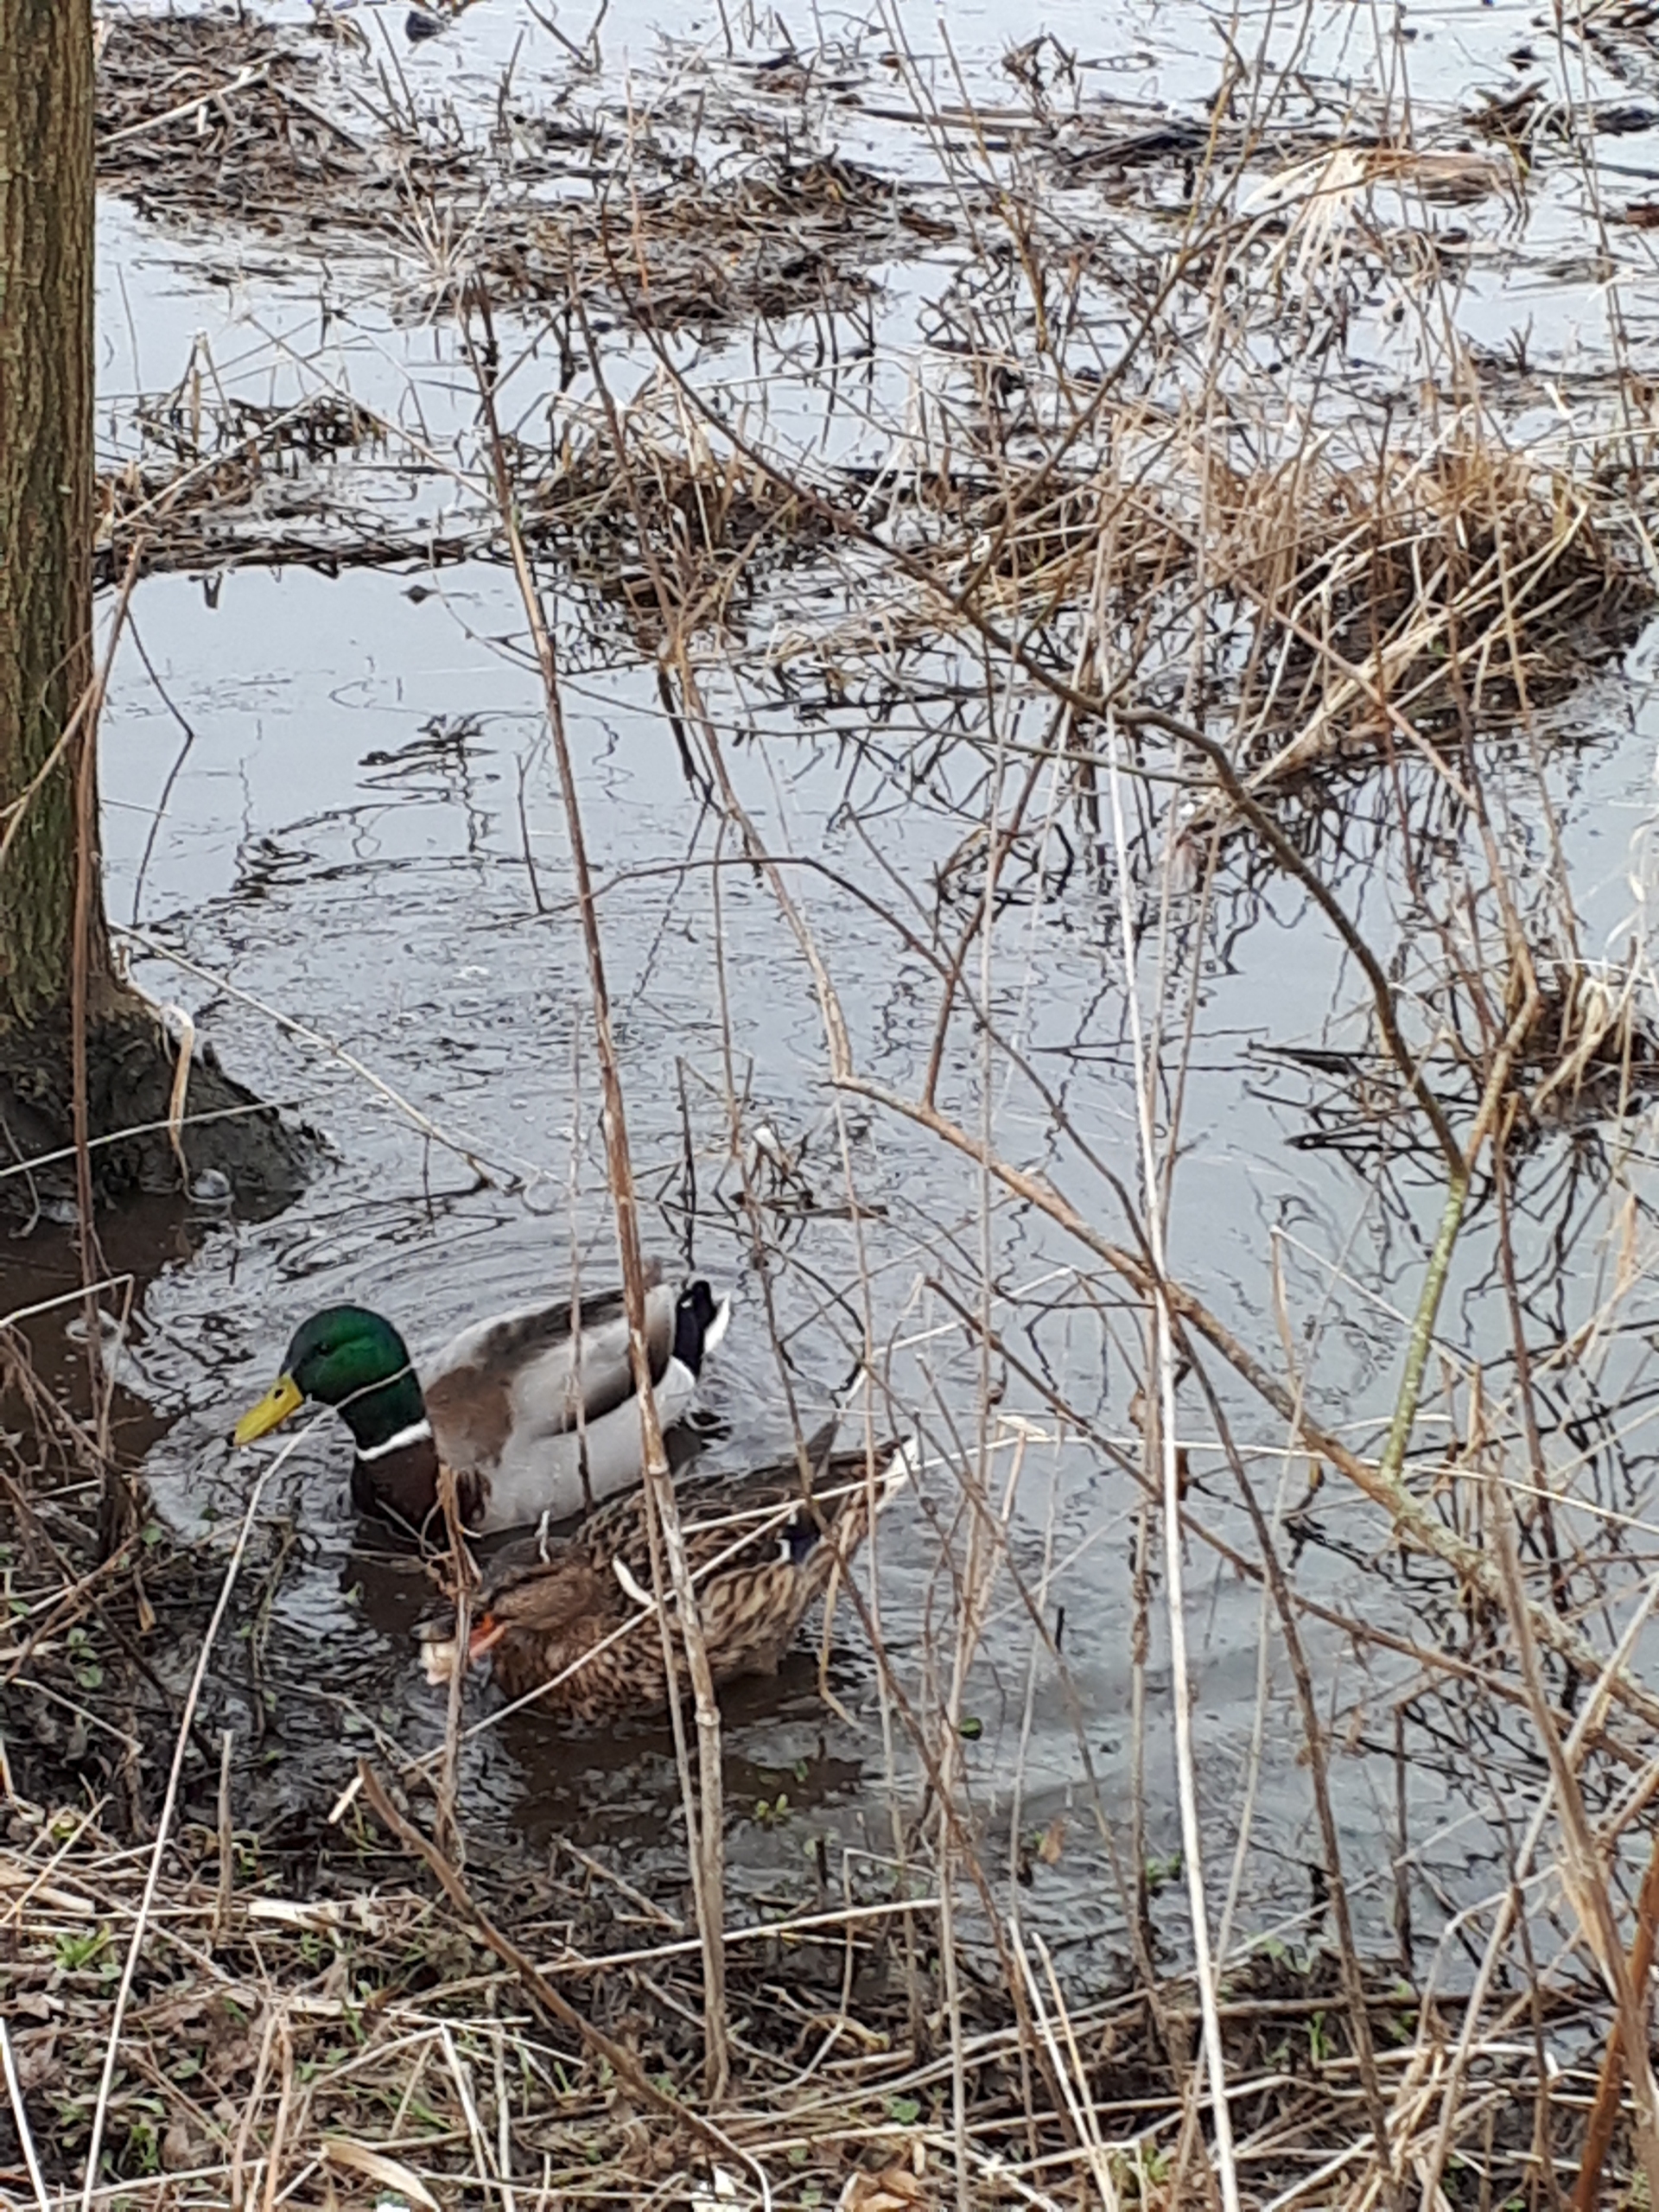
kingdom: Animalia
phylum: Chordata
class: Aves
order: Anseriformes
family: Anatidae
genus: Anas
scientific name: Anas platyrhynchos
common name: Gråand
